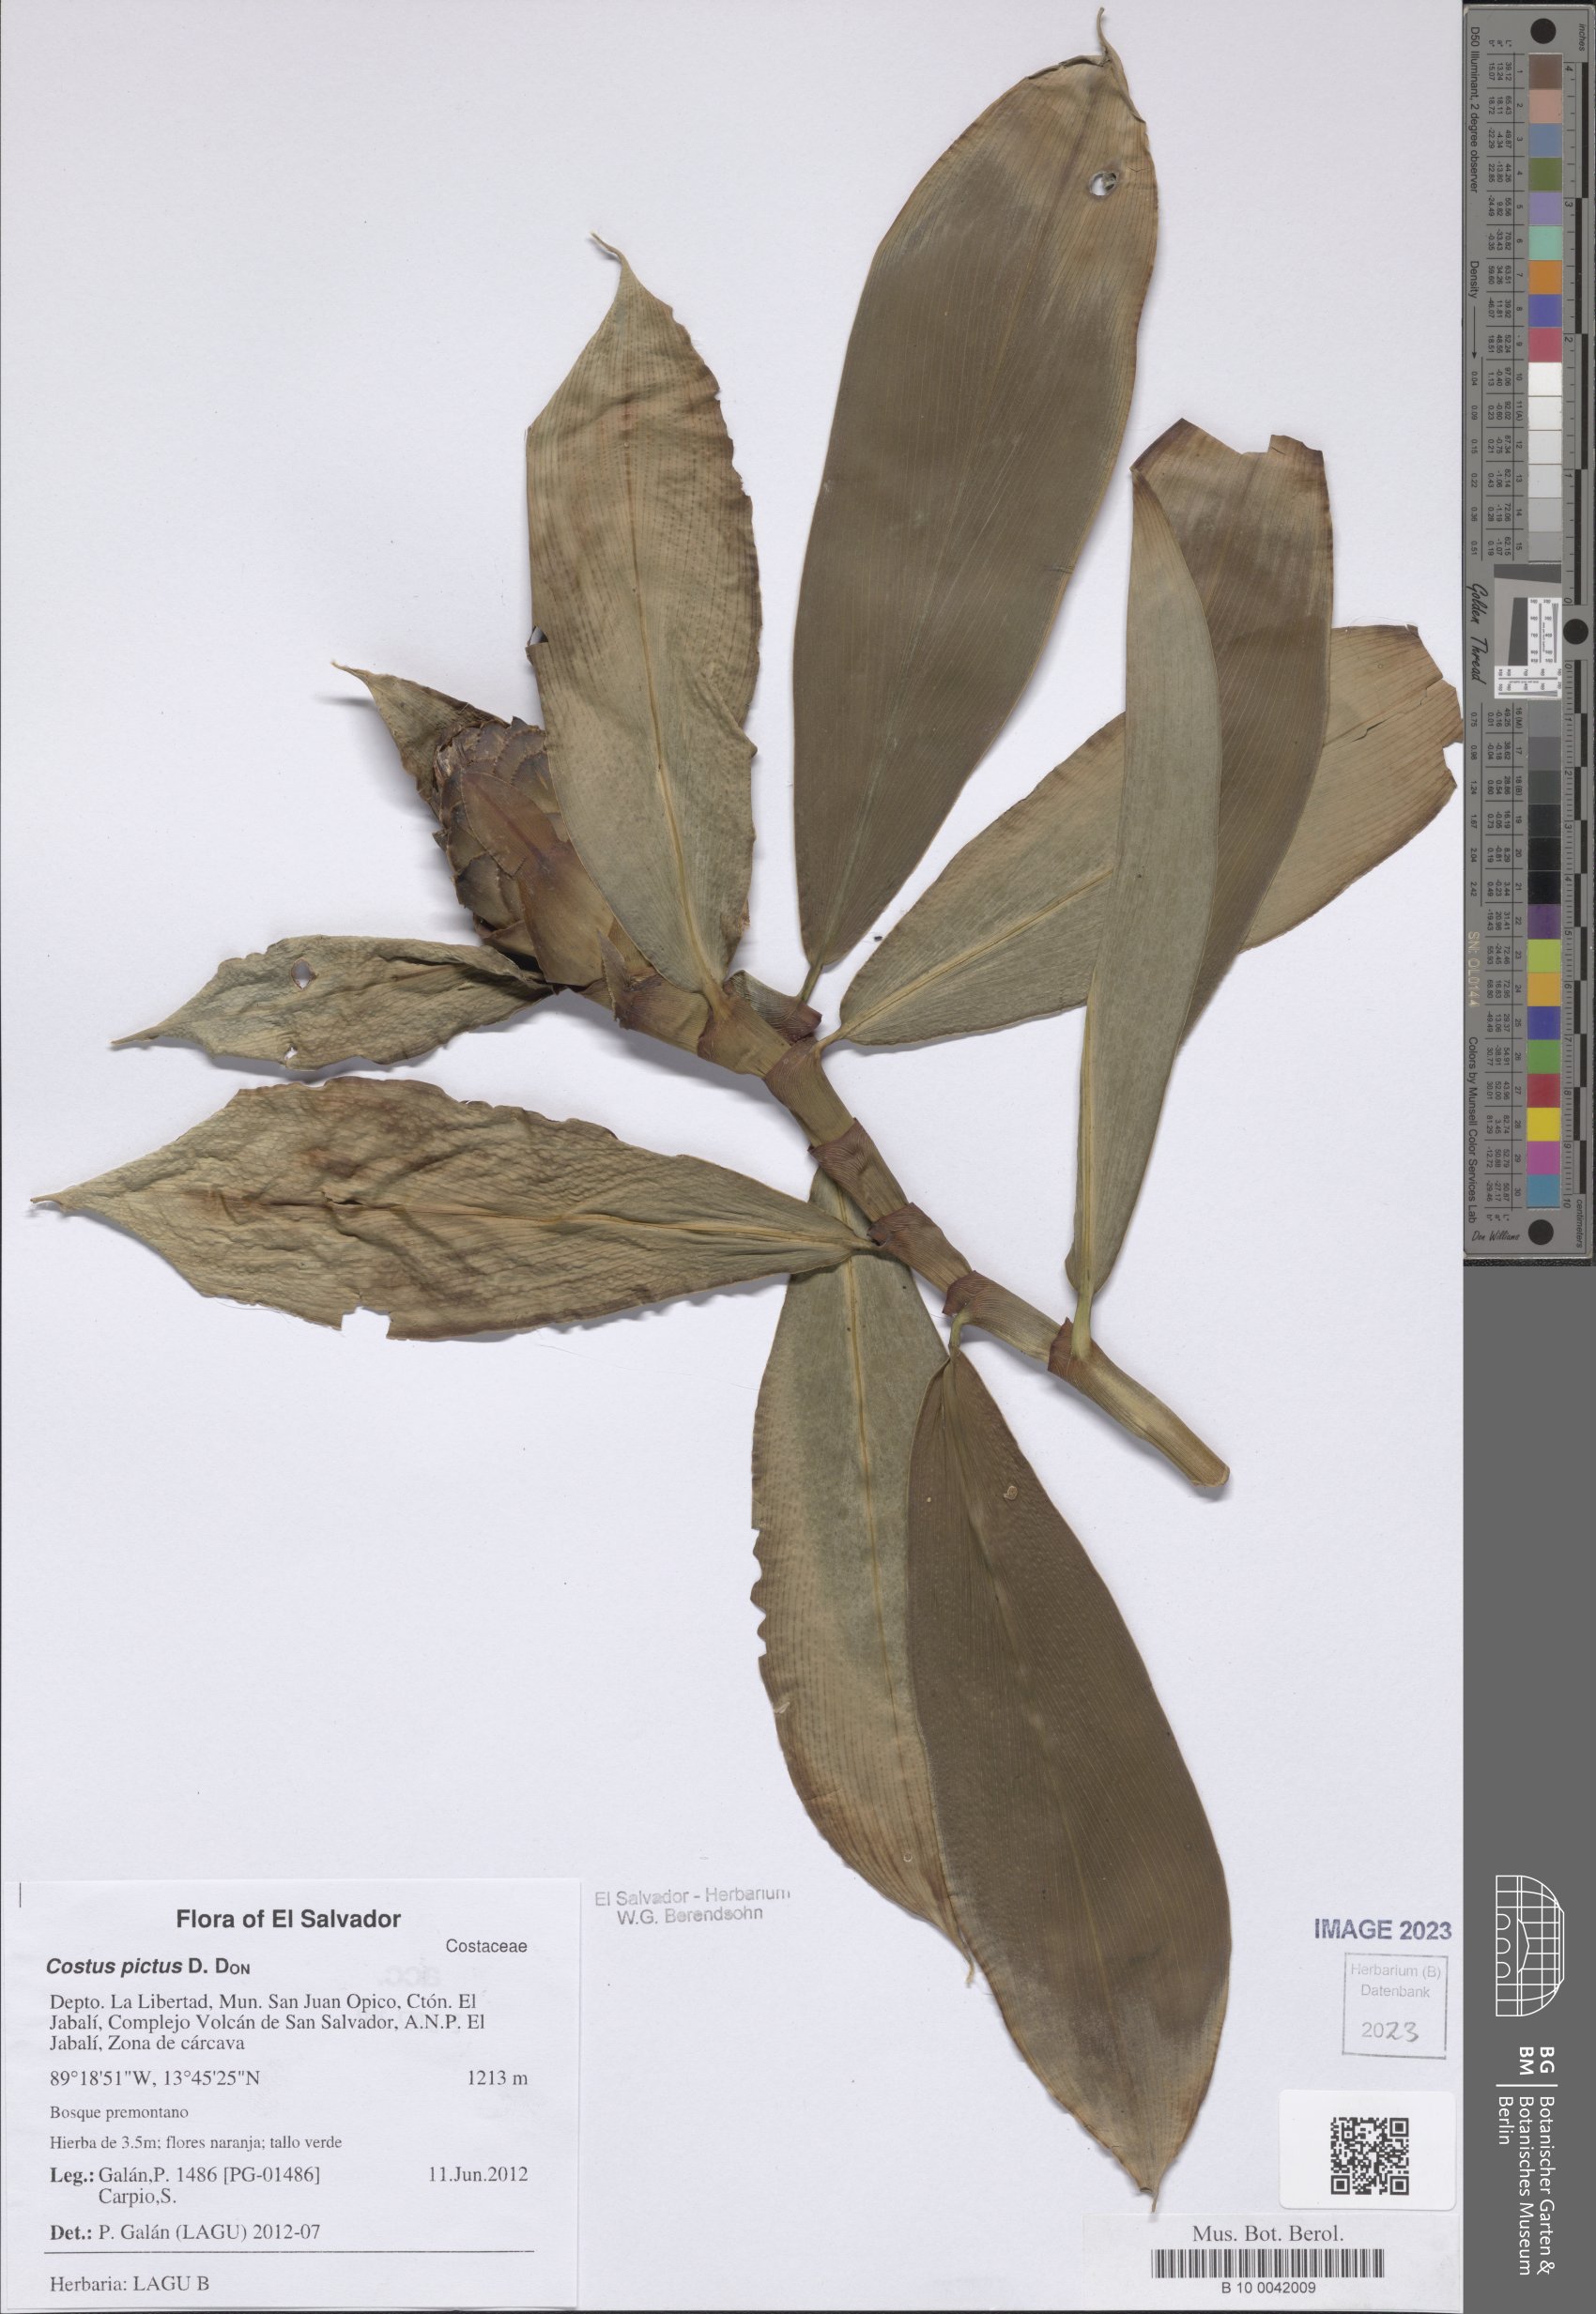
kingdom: Plantae
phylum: Tracheophyta
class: Liliopsida
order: Zingiberales
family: Costaceae
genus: Costus
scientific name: Costus pictus
